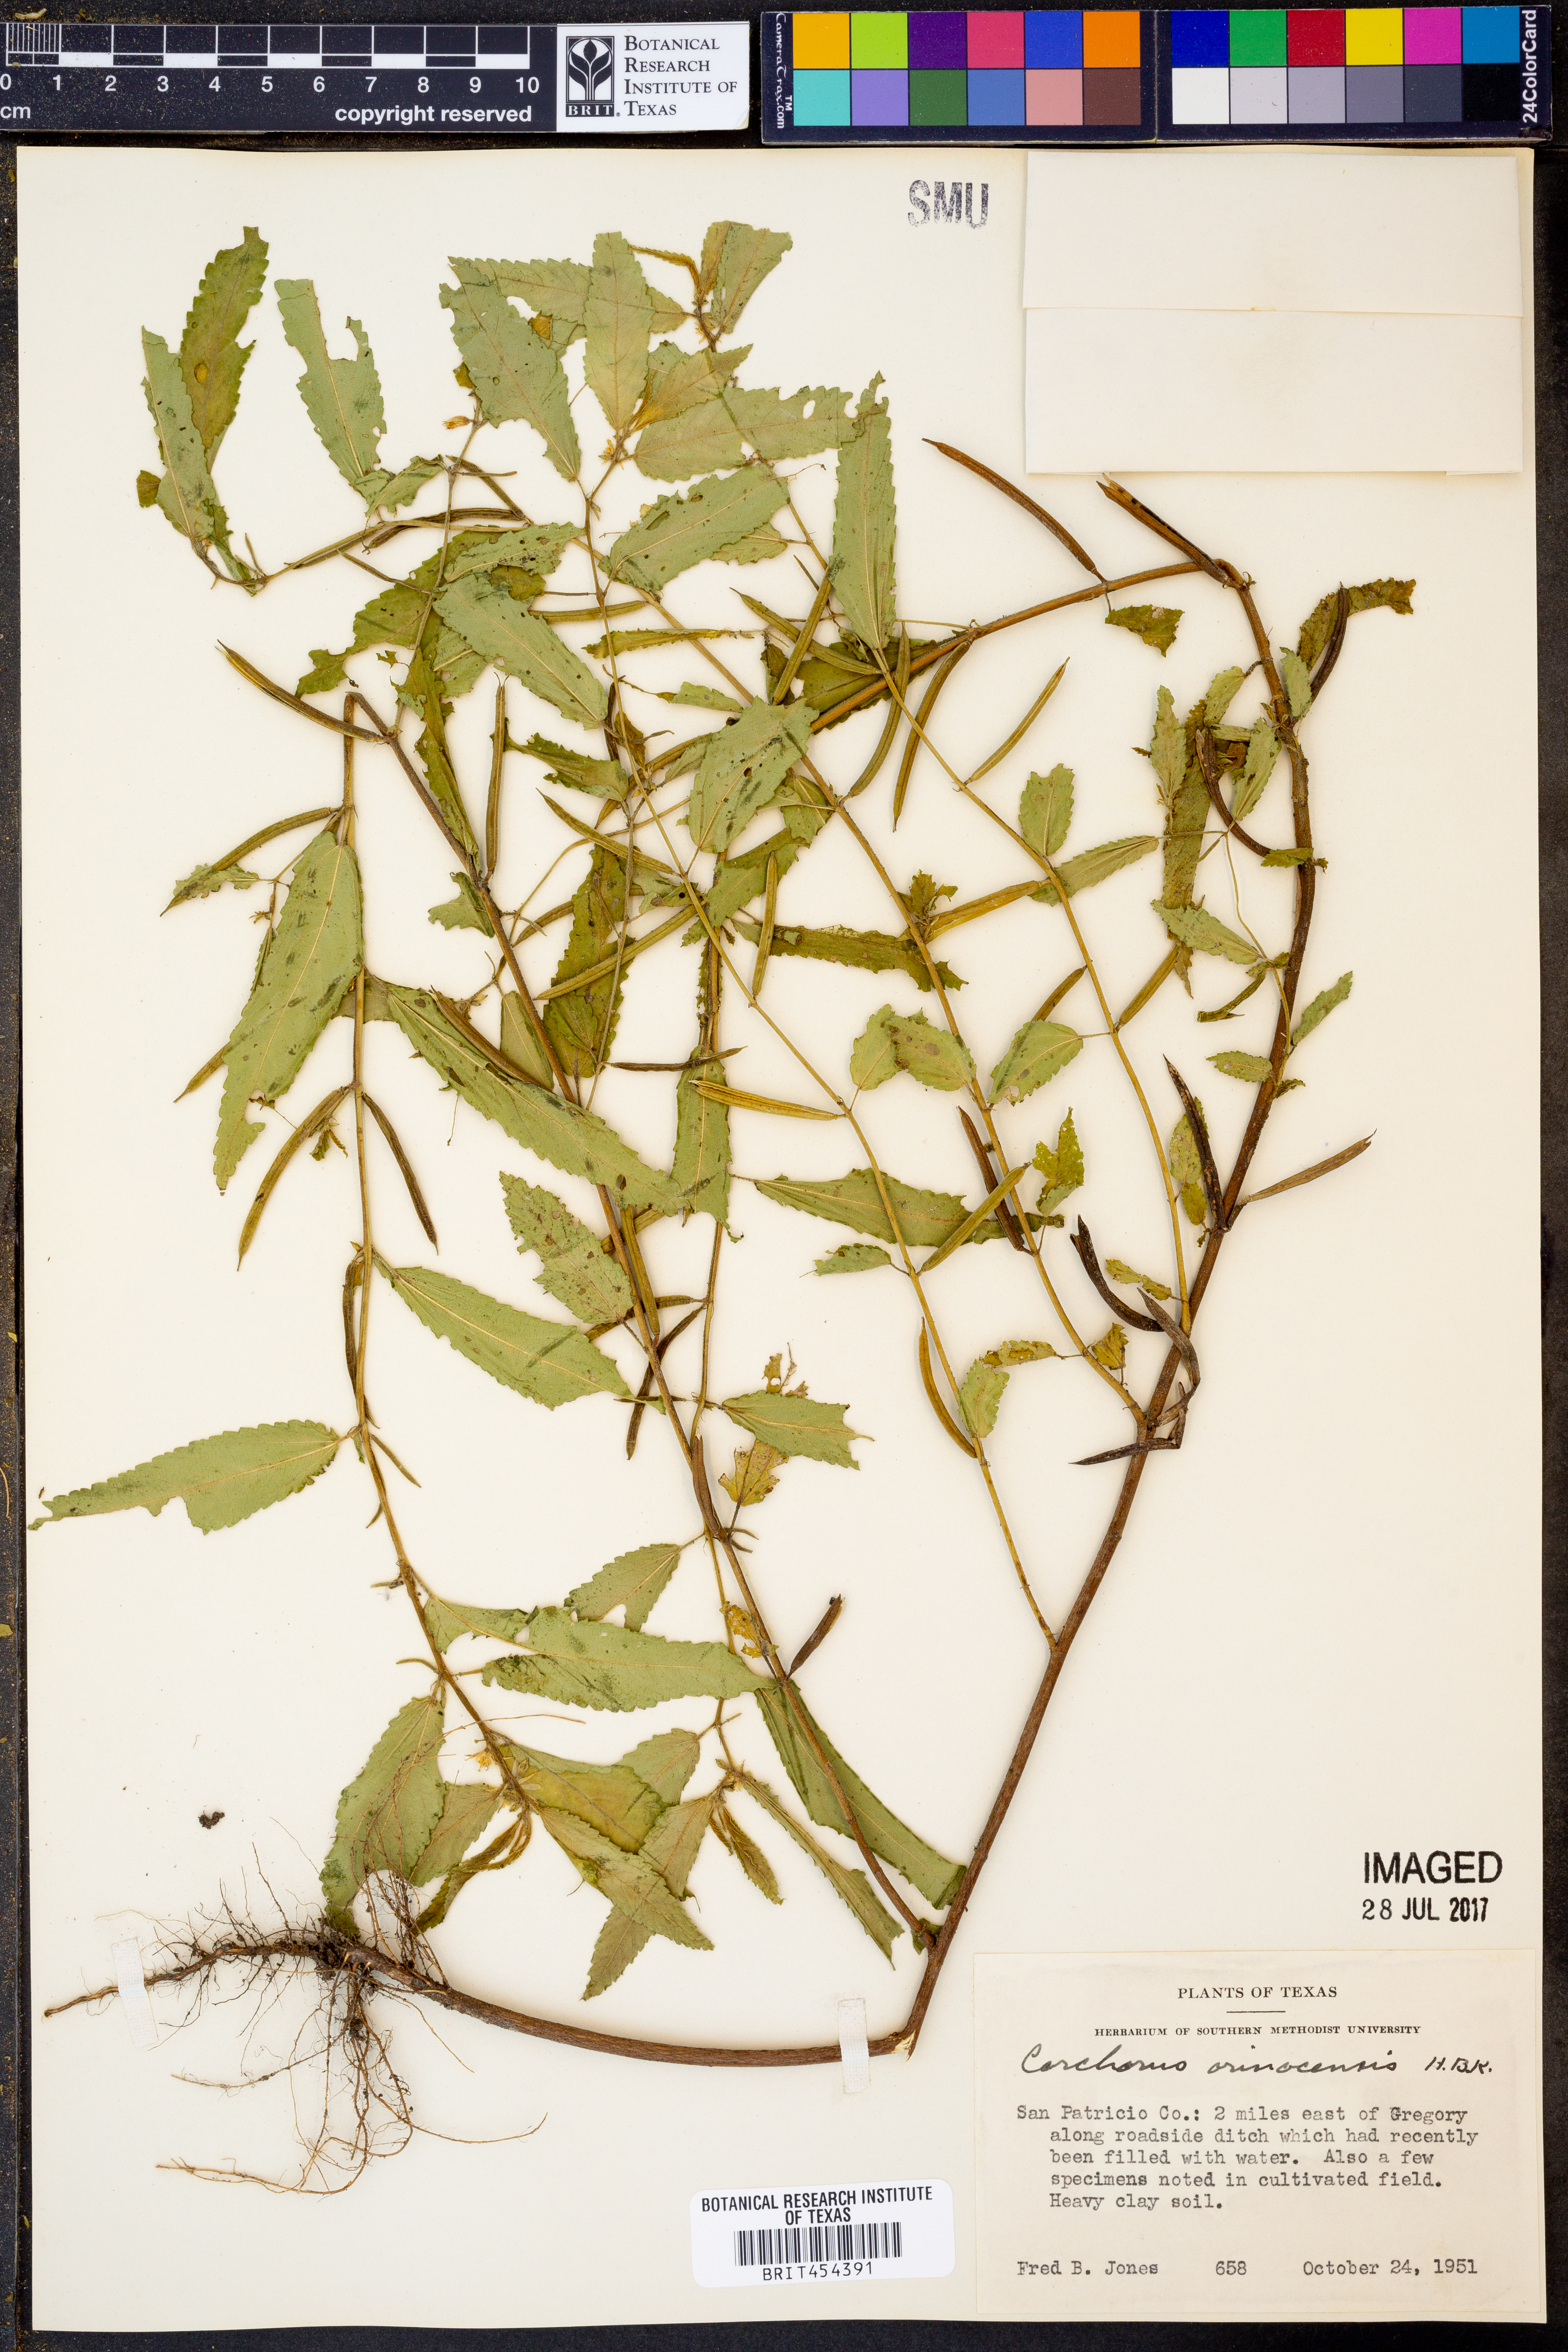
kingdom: Plantae
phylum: Tracheophyta
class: Magnoliopsida
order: Malvales
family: Malvaceae
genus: Corchorus
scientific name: Corchorus orinocensis
